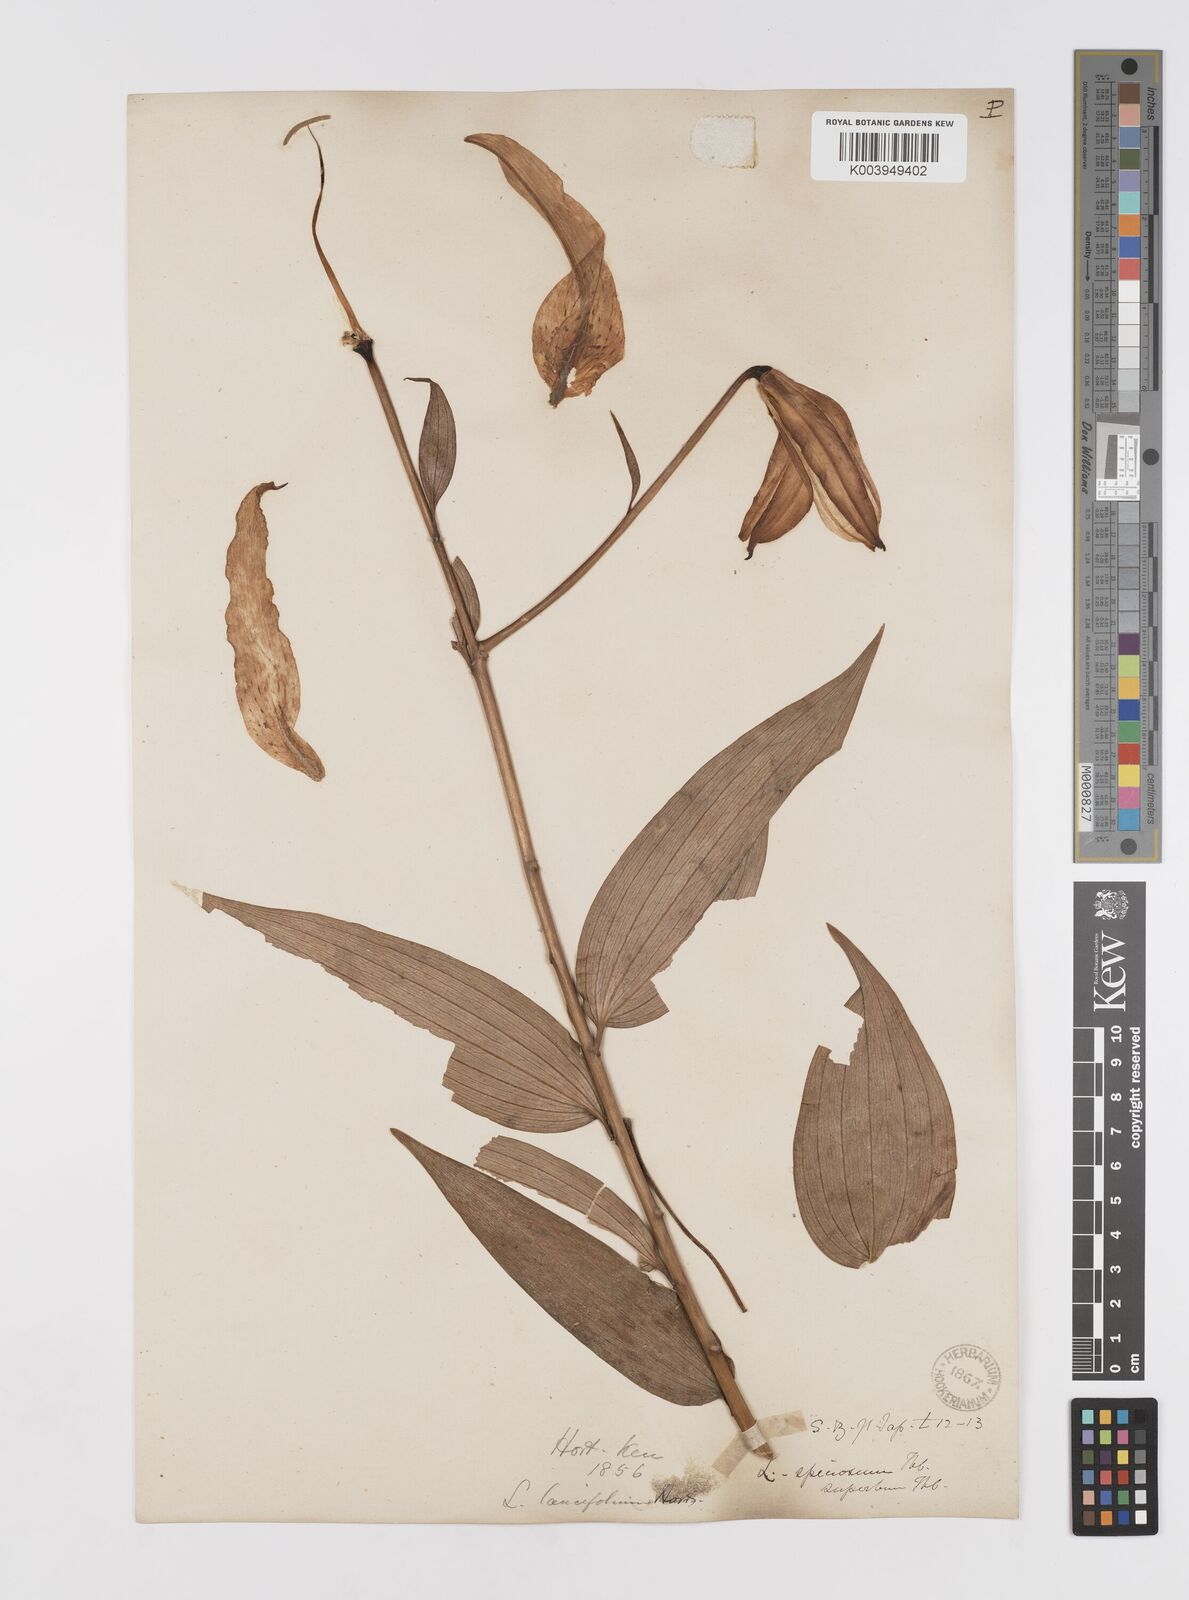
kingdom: Plantae
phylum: Tracheophyta
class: Liliopsida
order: Liliales
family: Liliaceae
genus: Lilium
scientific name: Lilium speciosum
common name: Japanese lily
